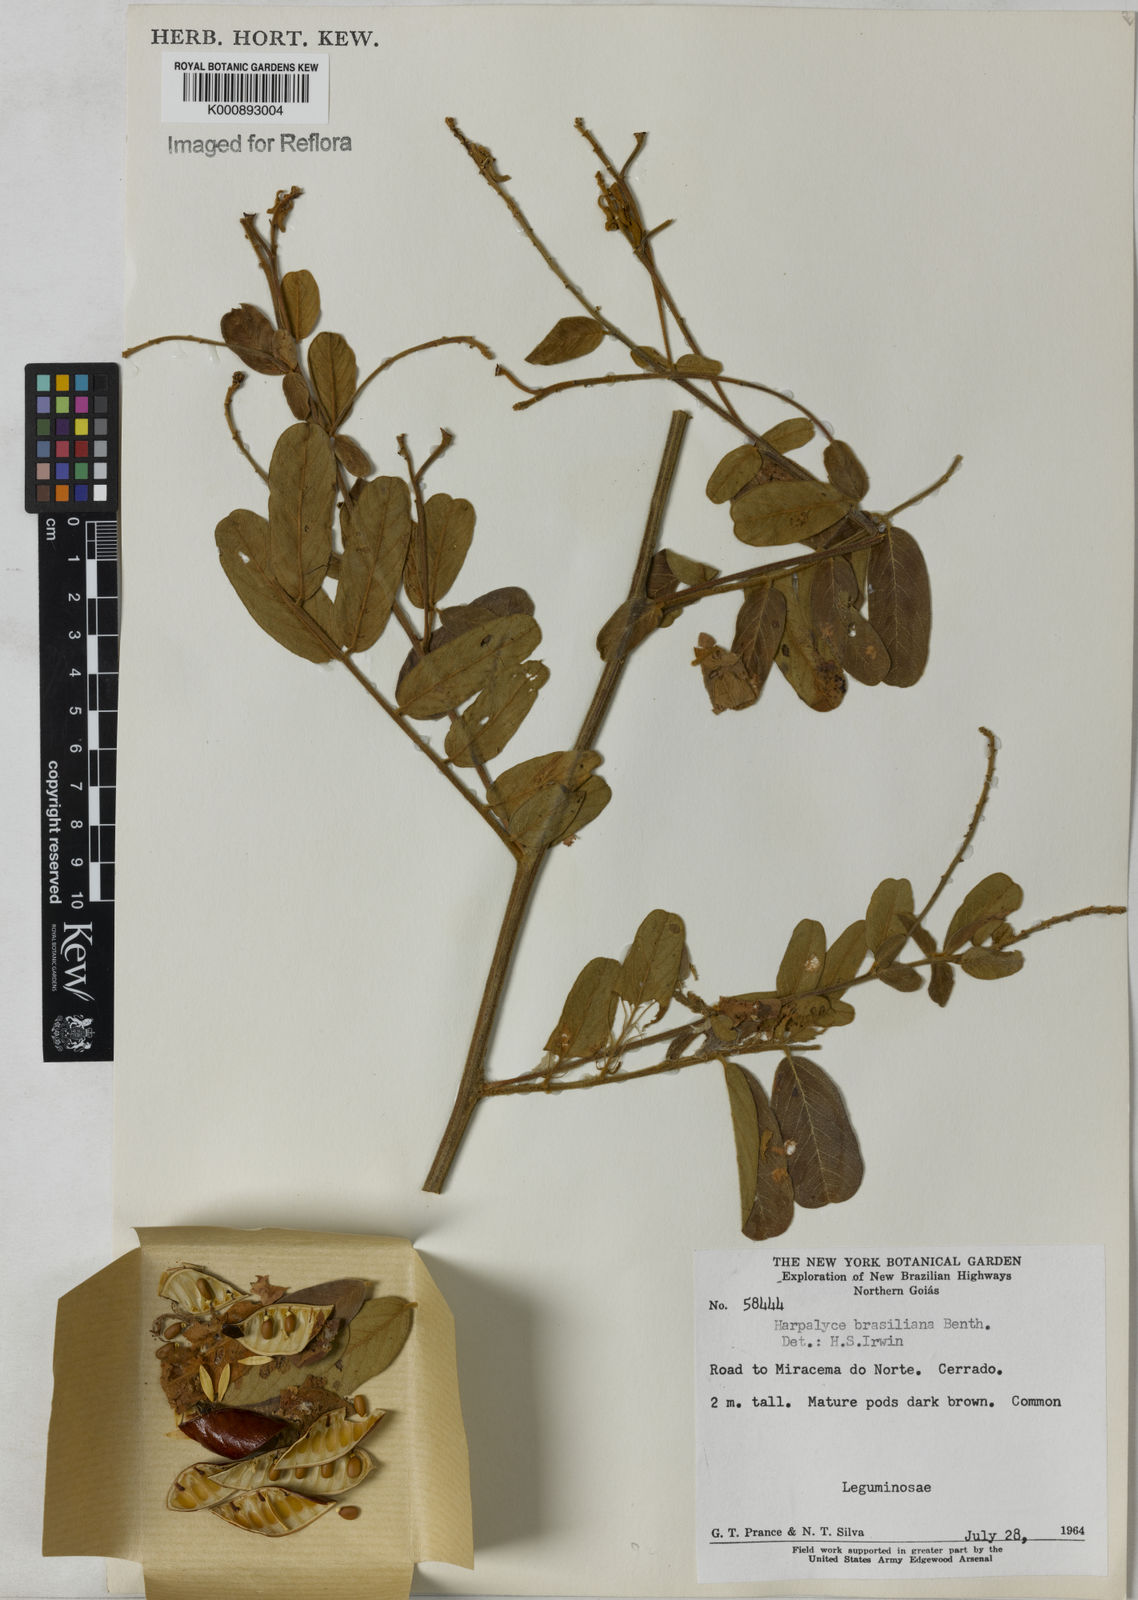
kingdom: Plantae
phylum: Tracheophyta
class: Magnoliopsida
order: Fabales
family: Fabaceae
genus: Harpalyce
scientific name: Harpalyce brasiliana
